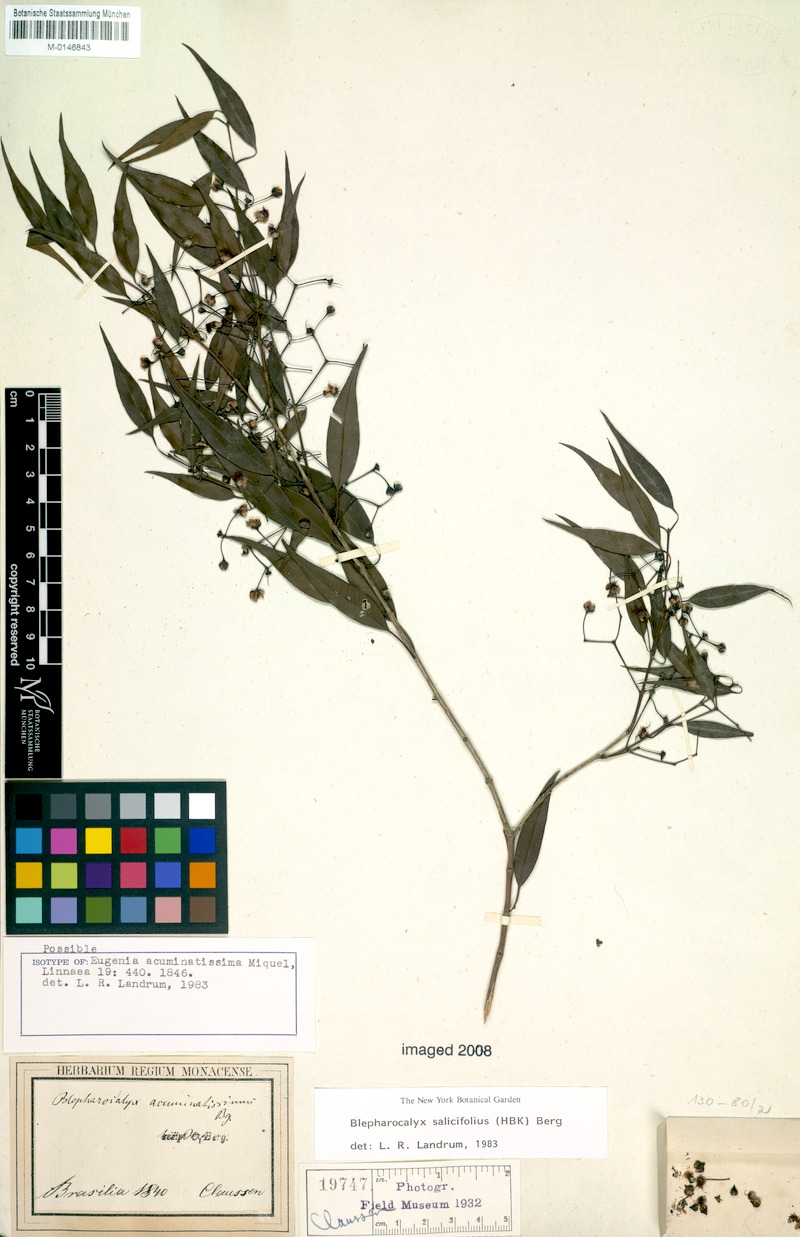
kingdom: Plantae
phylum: Tracheophyta
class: Magnoliopsida
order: Myrtales
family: Myrtaceae
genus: Blepharocalyx
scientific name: Blepharocalyx salicifolius
